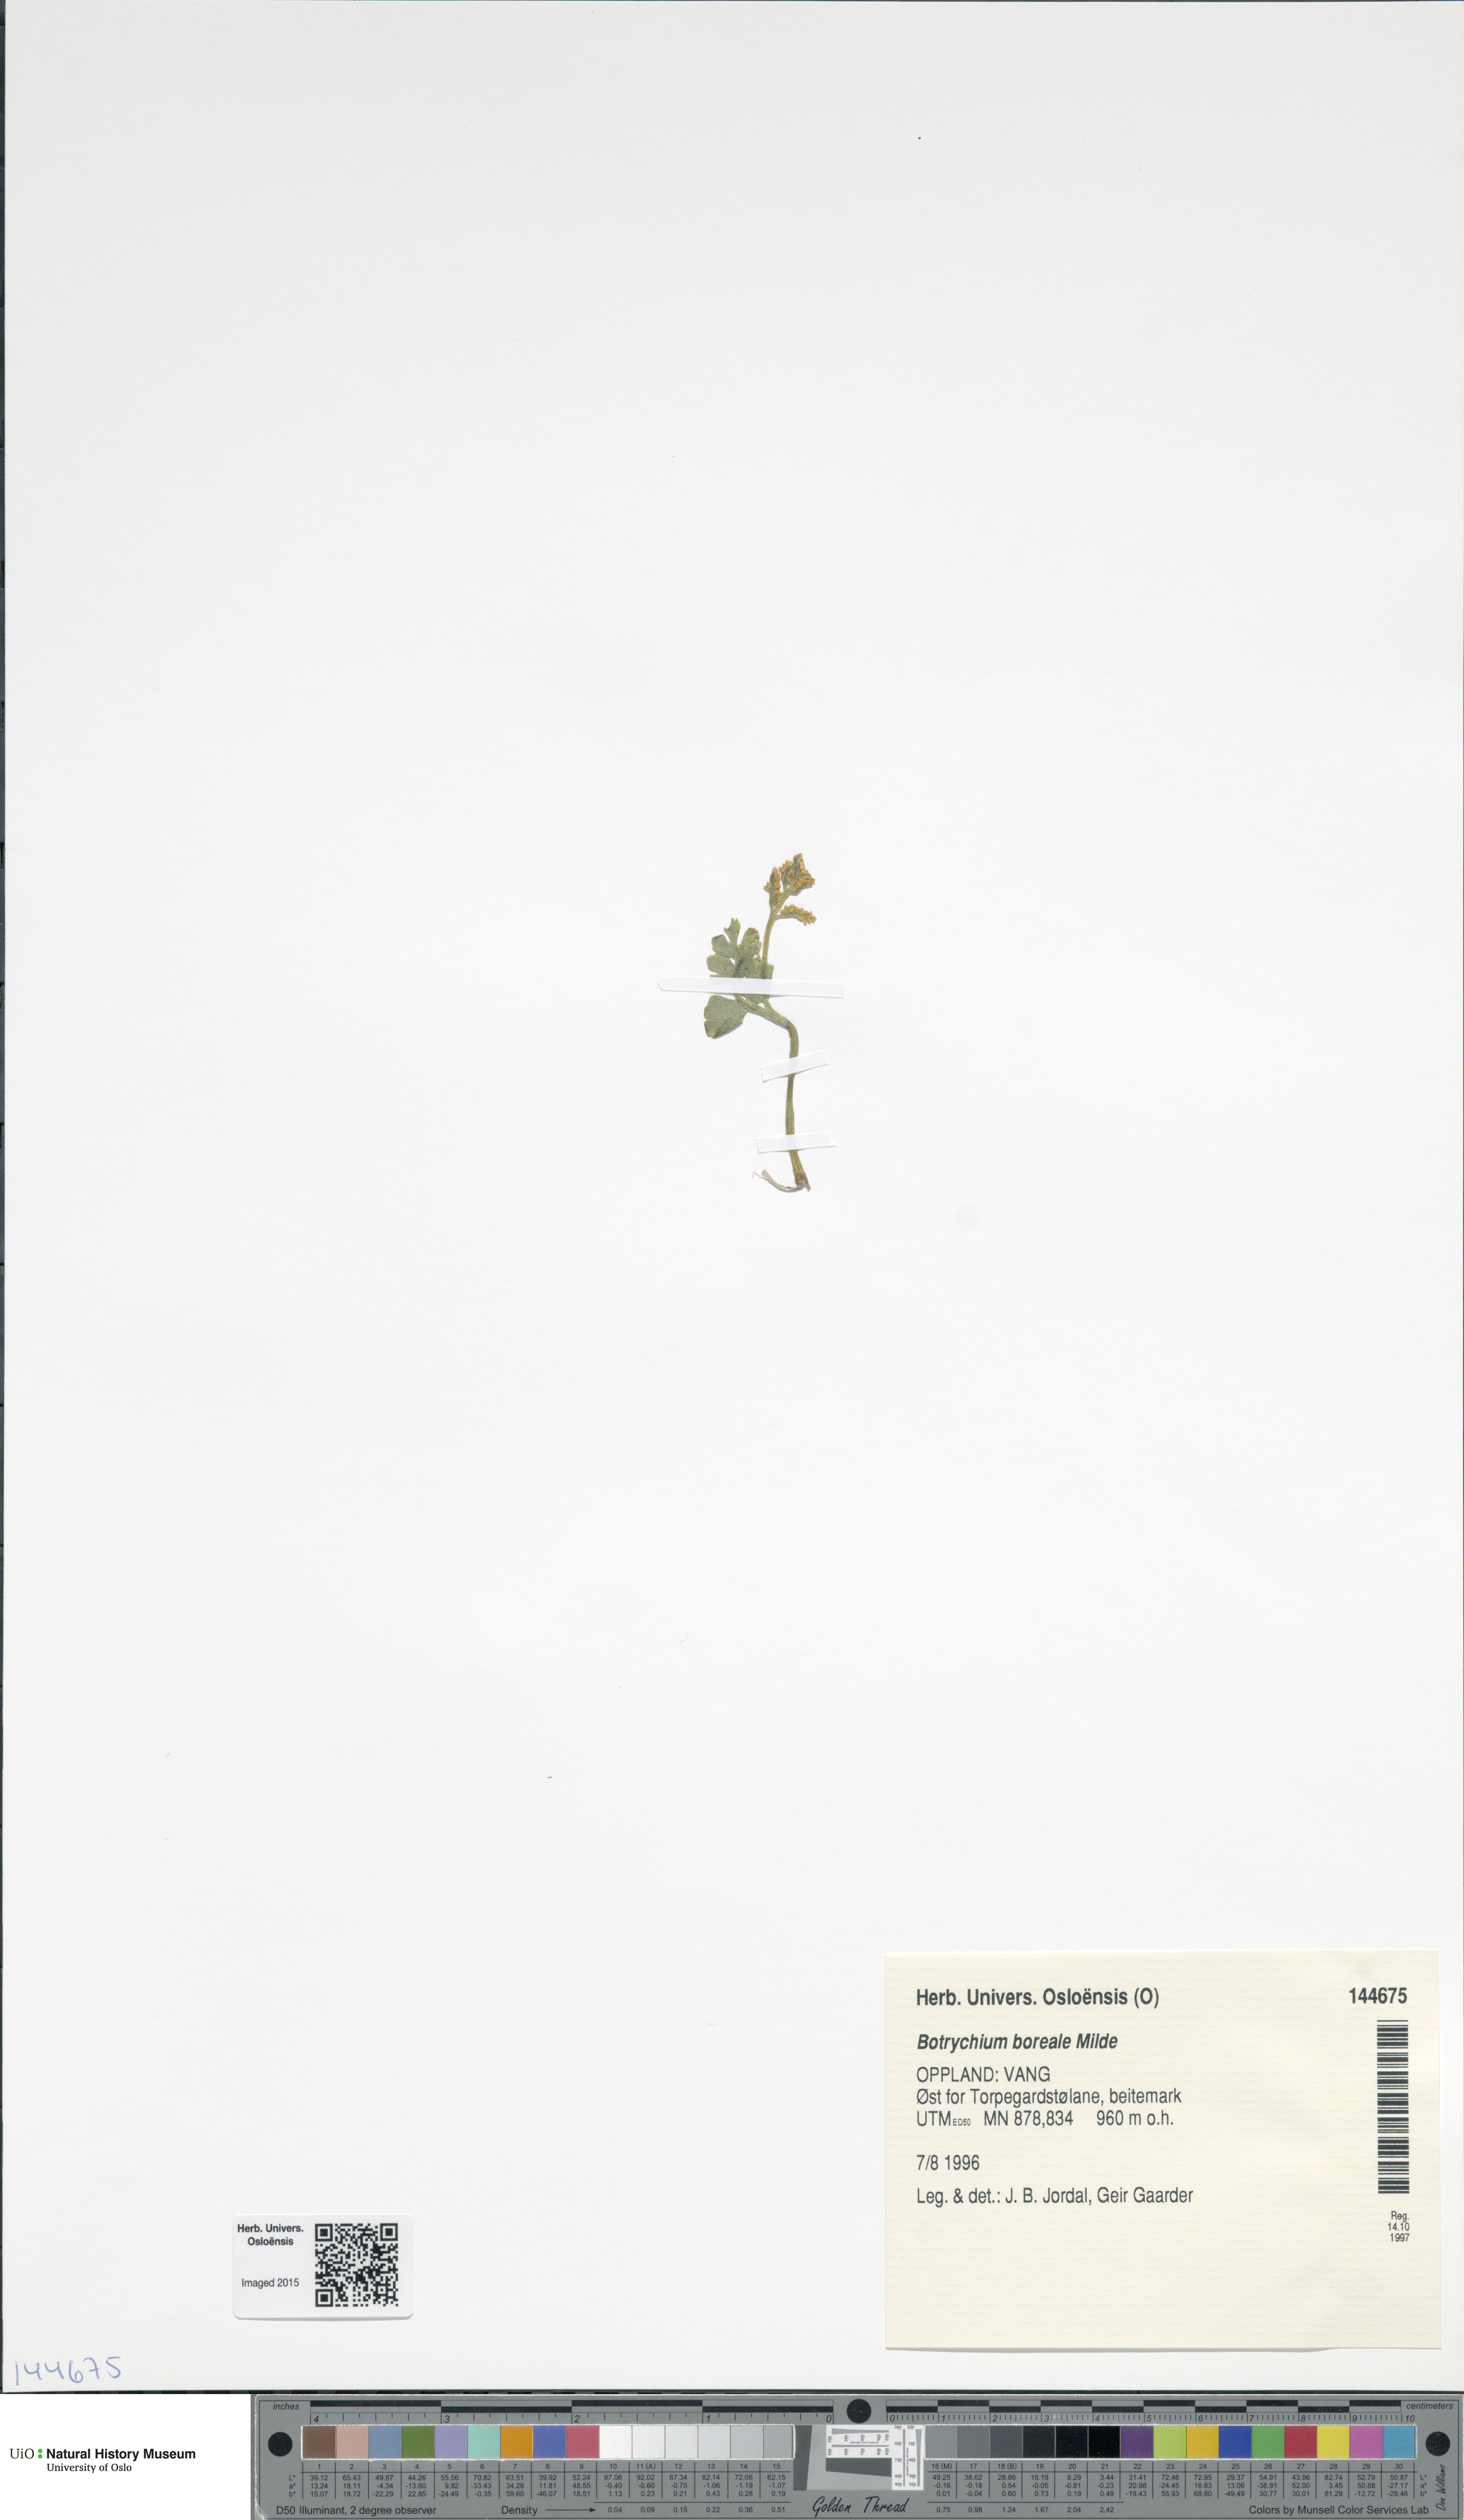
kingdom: Plantae
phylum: Tracheophyta
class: Polypodiopsida
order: Ophioglossales
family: Ophioglossaceae
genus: Botrychium
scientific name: Botrychium boreale
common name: Boreal moonwort
